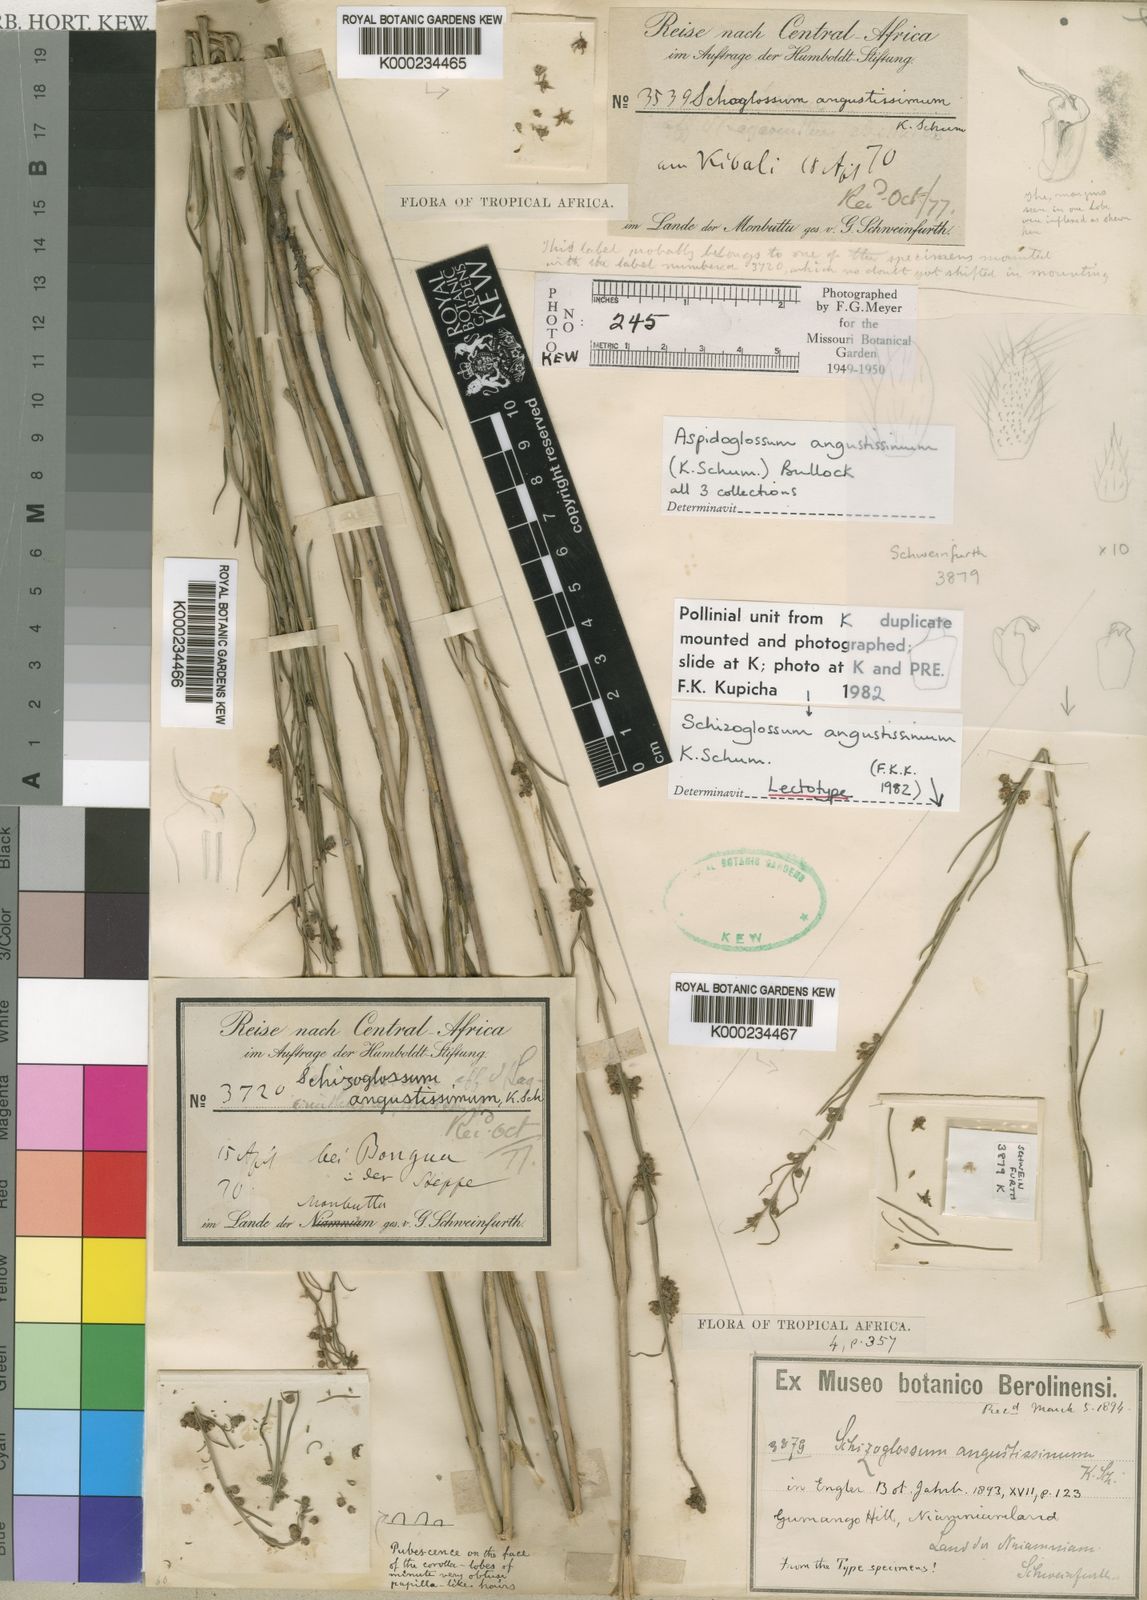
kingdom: Plantae
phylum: Tracheophyta
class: Magnoliopsida
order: Gentianales
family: Apocynaceae
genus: Aspidoglossum
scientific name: Aspidoglossum angustissimum
